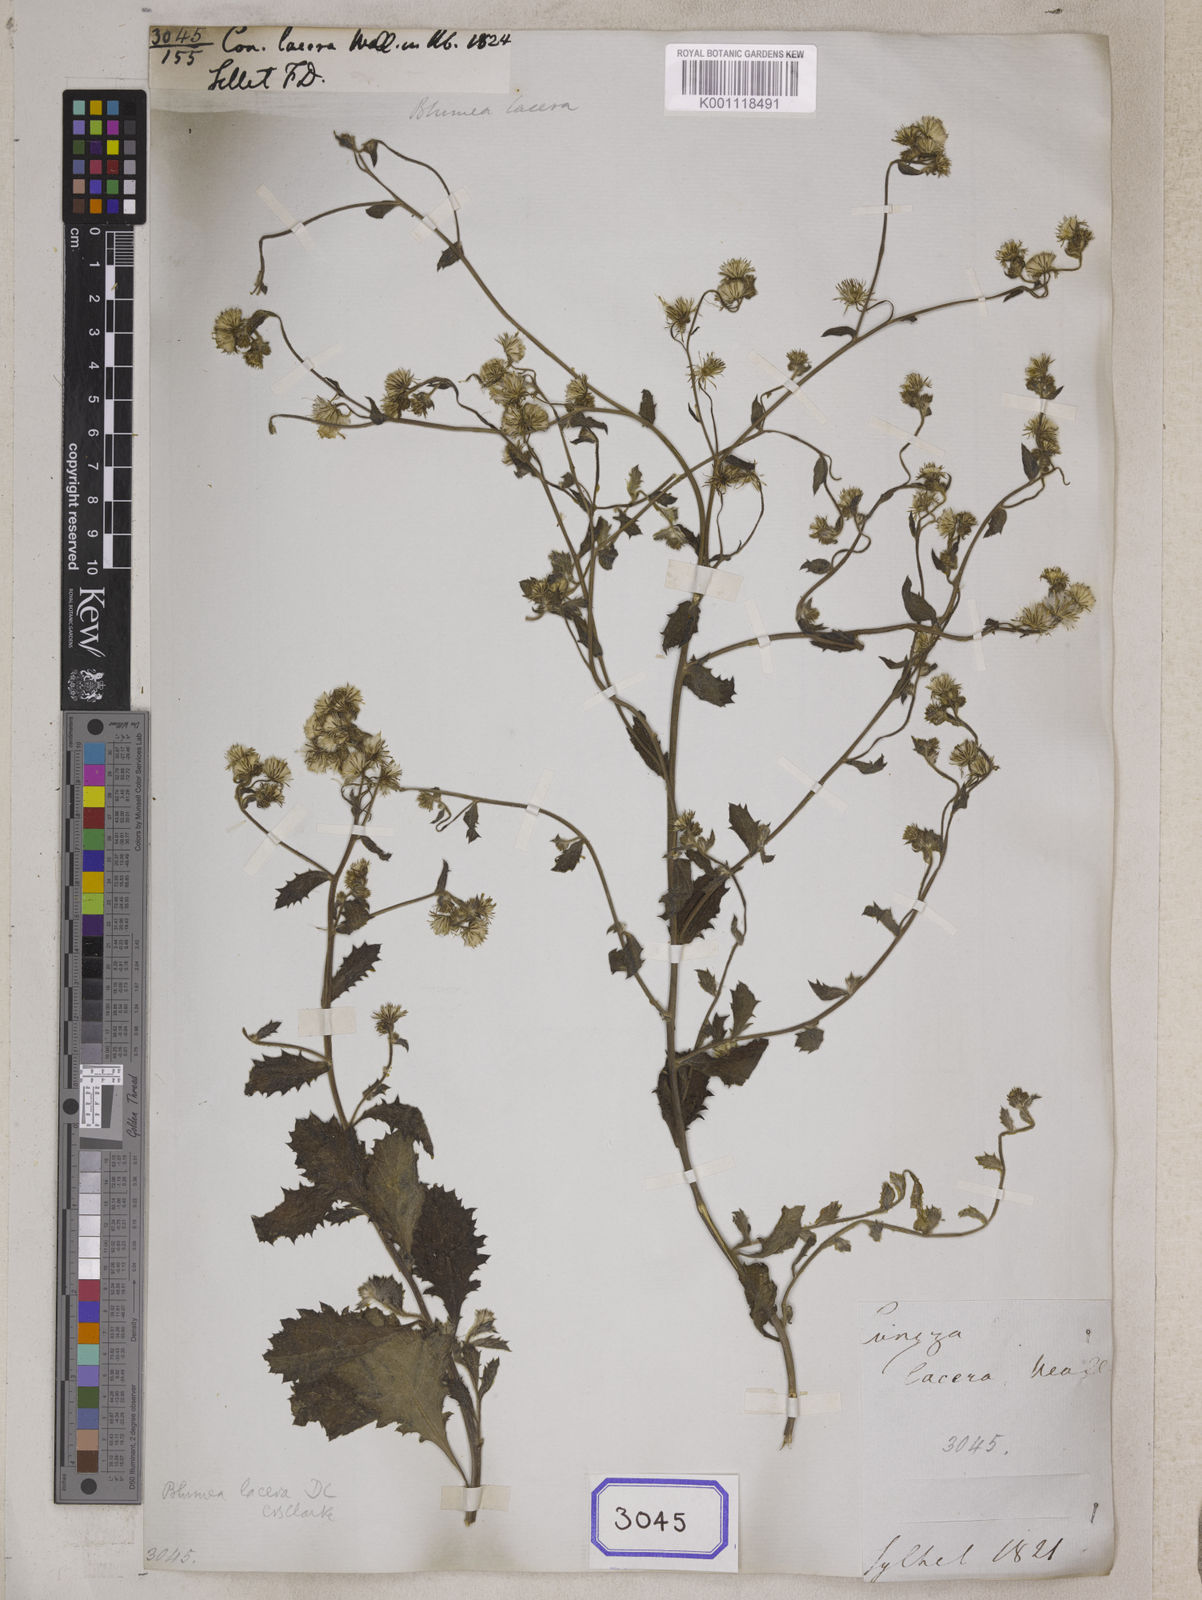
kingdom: Plantae
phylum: Tracheophyta
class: Magnoliopsida
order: Asterales
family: Asteraceae
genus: Conyza
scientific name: Conyza
